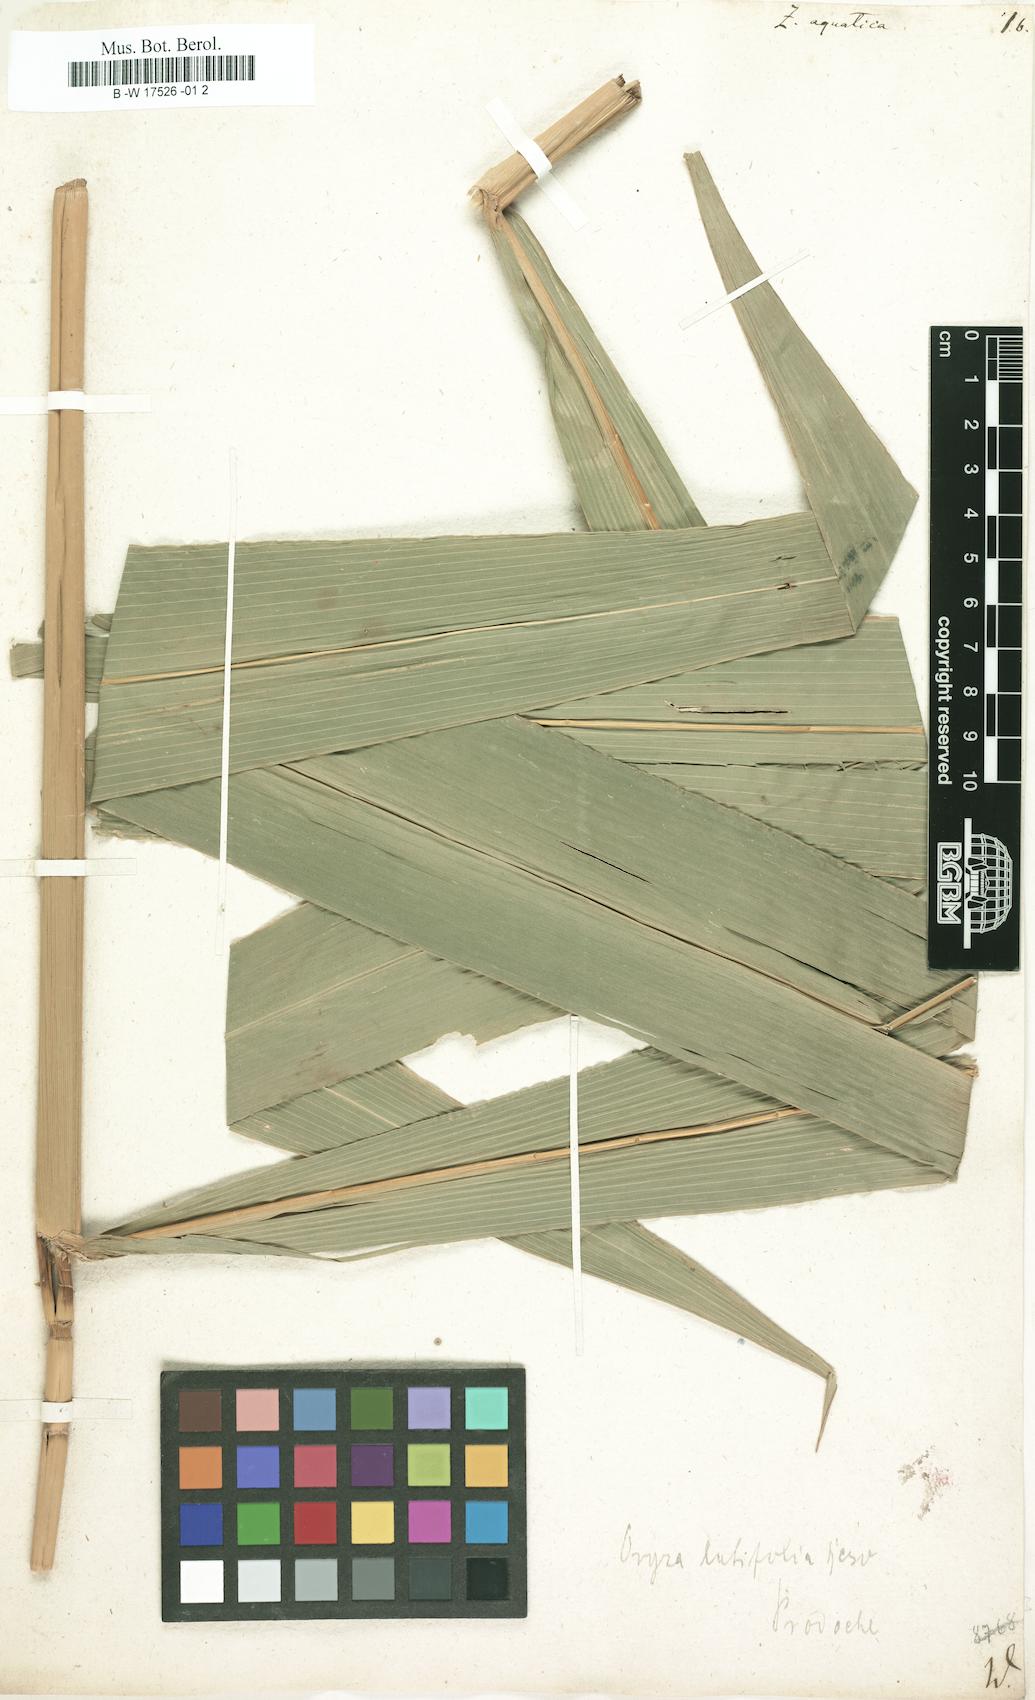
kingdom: Plantae
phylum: Tracheophyta
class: Liliopsida
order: Poales
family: Poaceae
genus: Zizania
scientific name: Zizania aquatica
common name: Annual wildrice
